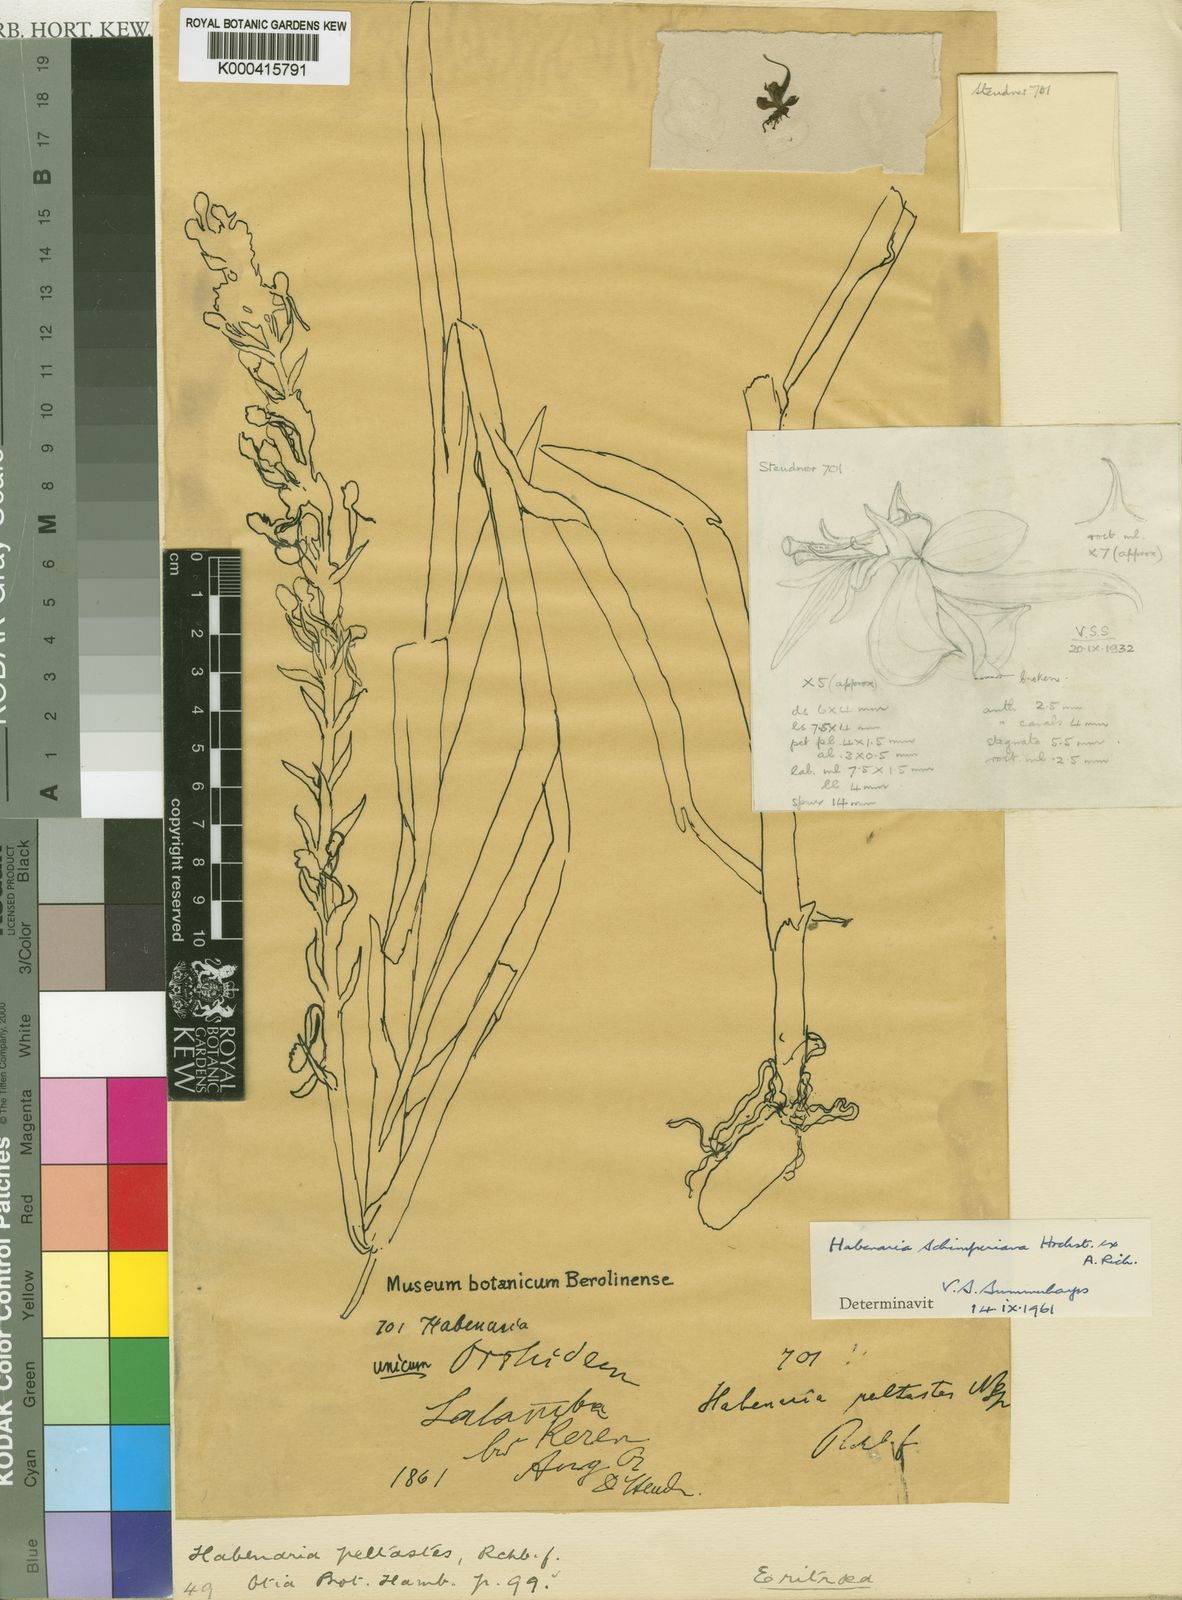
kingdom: Plantae
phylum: Tracheophyta
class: Liliopsida
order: Asparagales
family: Orchidaceae
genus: Habenaria
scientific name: Habenaria schimperiana
